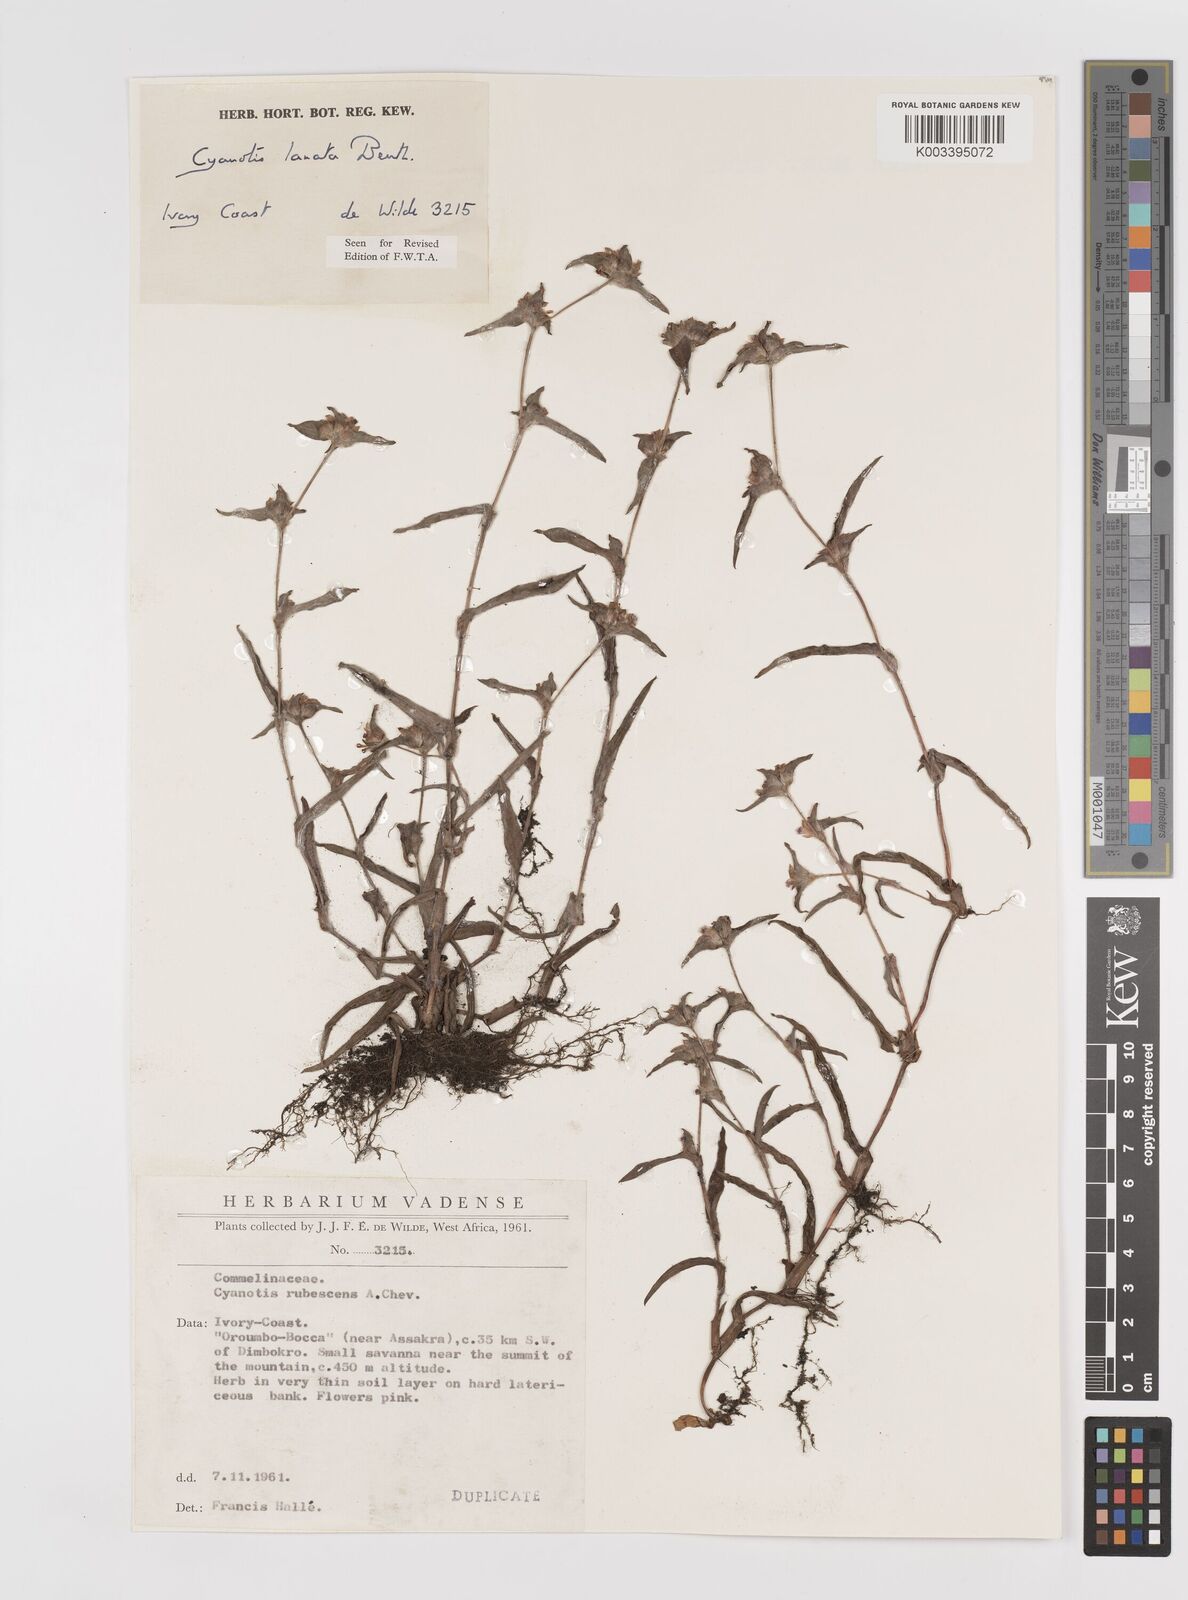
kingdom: Plantae
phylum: Tracheophyta
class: Liliopsida
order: Commelinales
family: Commelinaceae
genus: Cyanotis
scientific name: Cyanotis lanata
